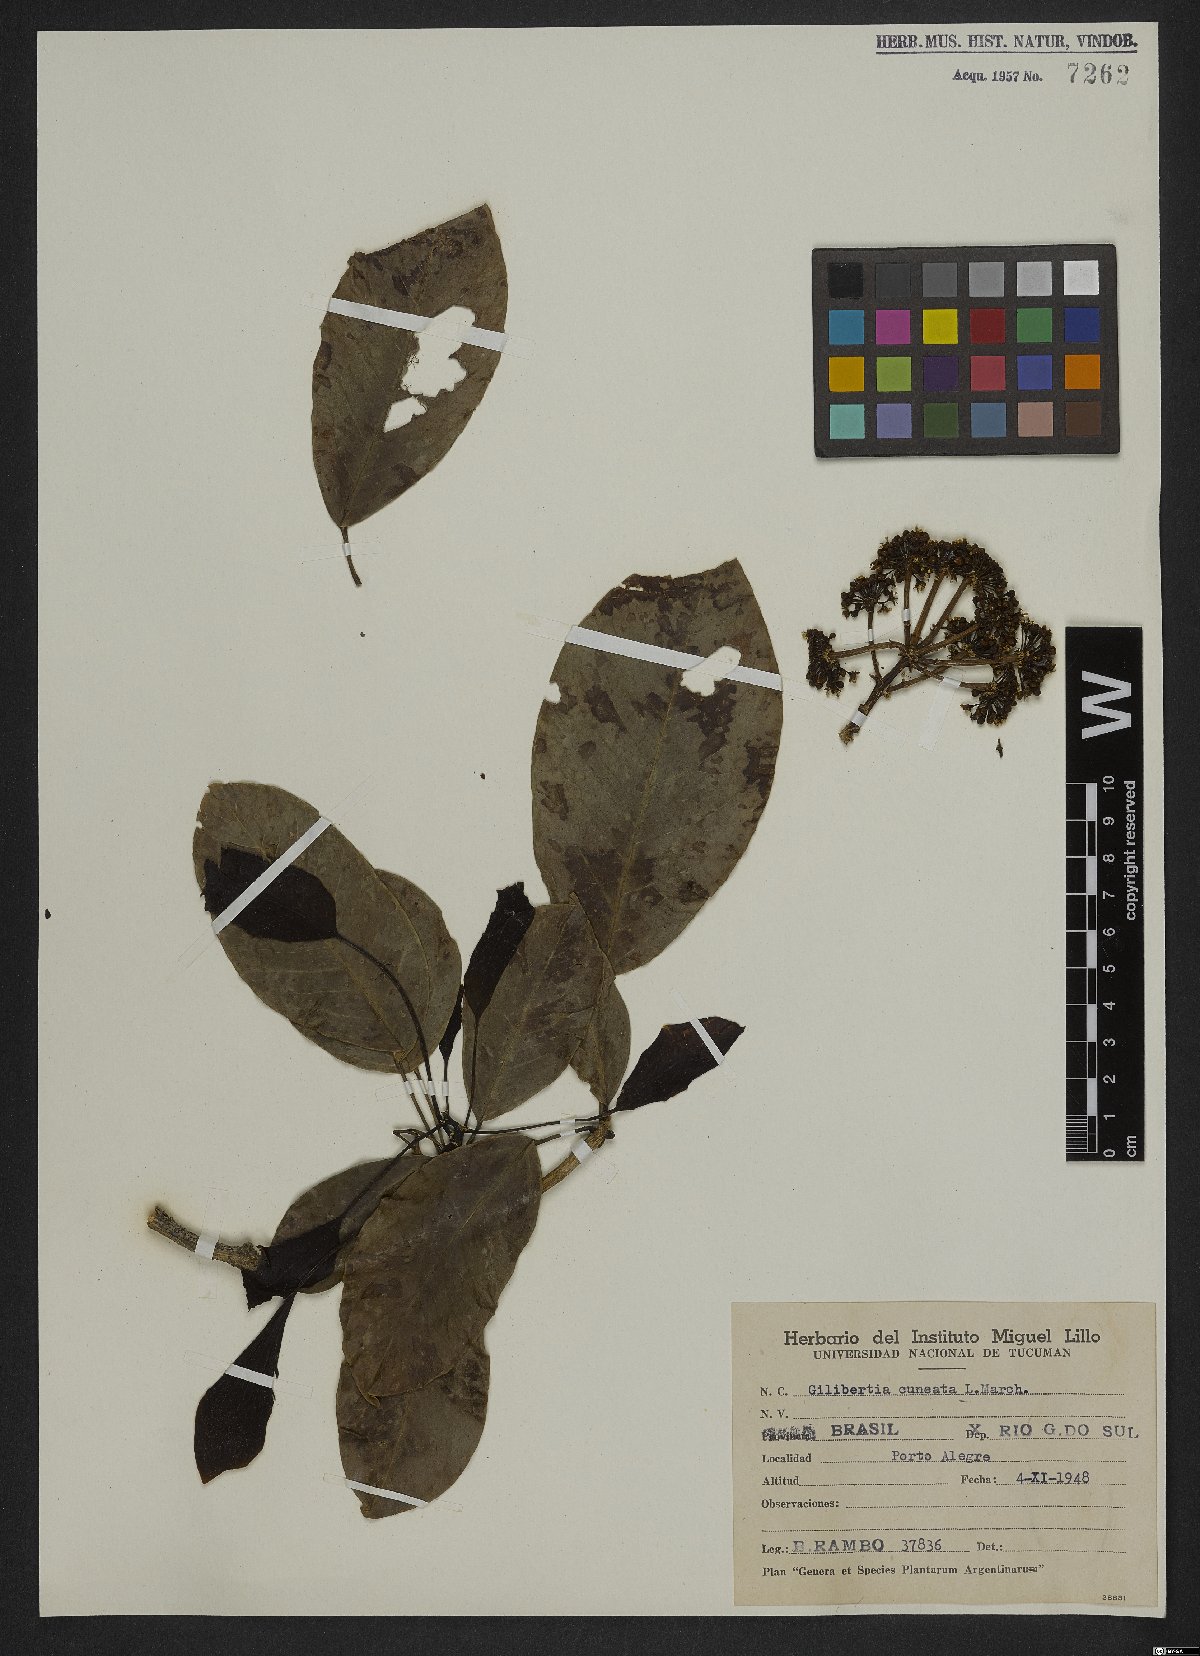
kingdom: Plantae
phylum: Tracheophyta
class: Magnoliopsida
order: Apiales
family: Araliaceae
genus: Dendropanax
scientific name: Dendropanax cuneatus
